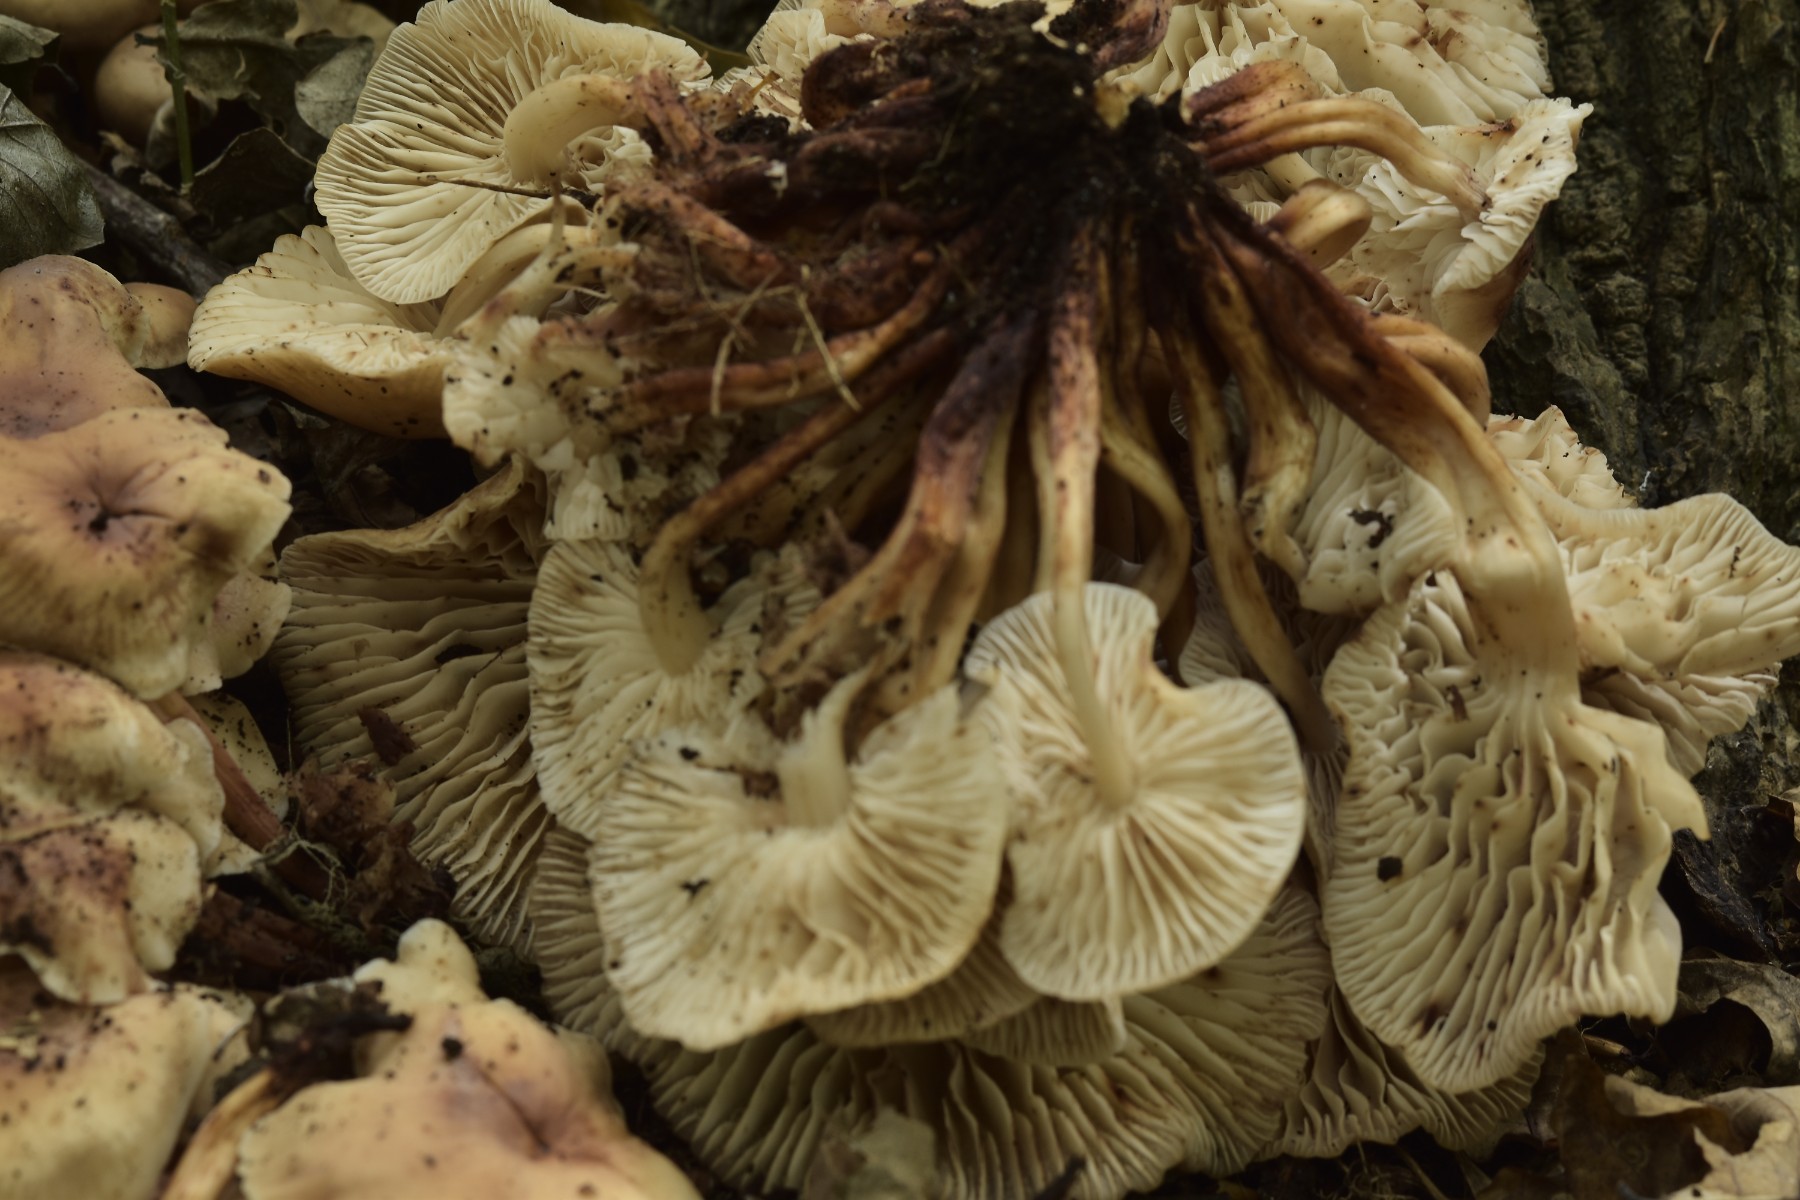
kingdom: Fungi
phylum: Basidiomycota
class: Agaricomycetes
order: Agaricales
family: Omphalotaceae
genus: Gymnopus
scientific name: Gymnopus fusipes
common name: tenstokket fladhat
